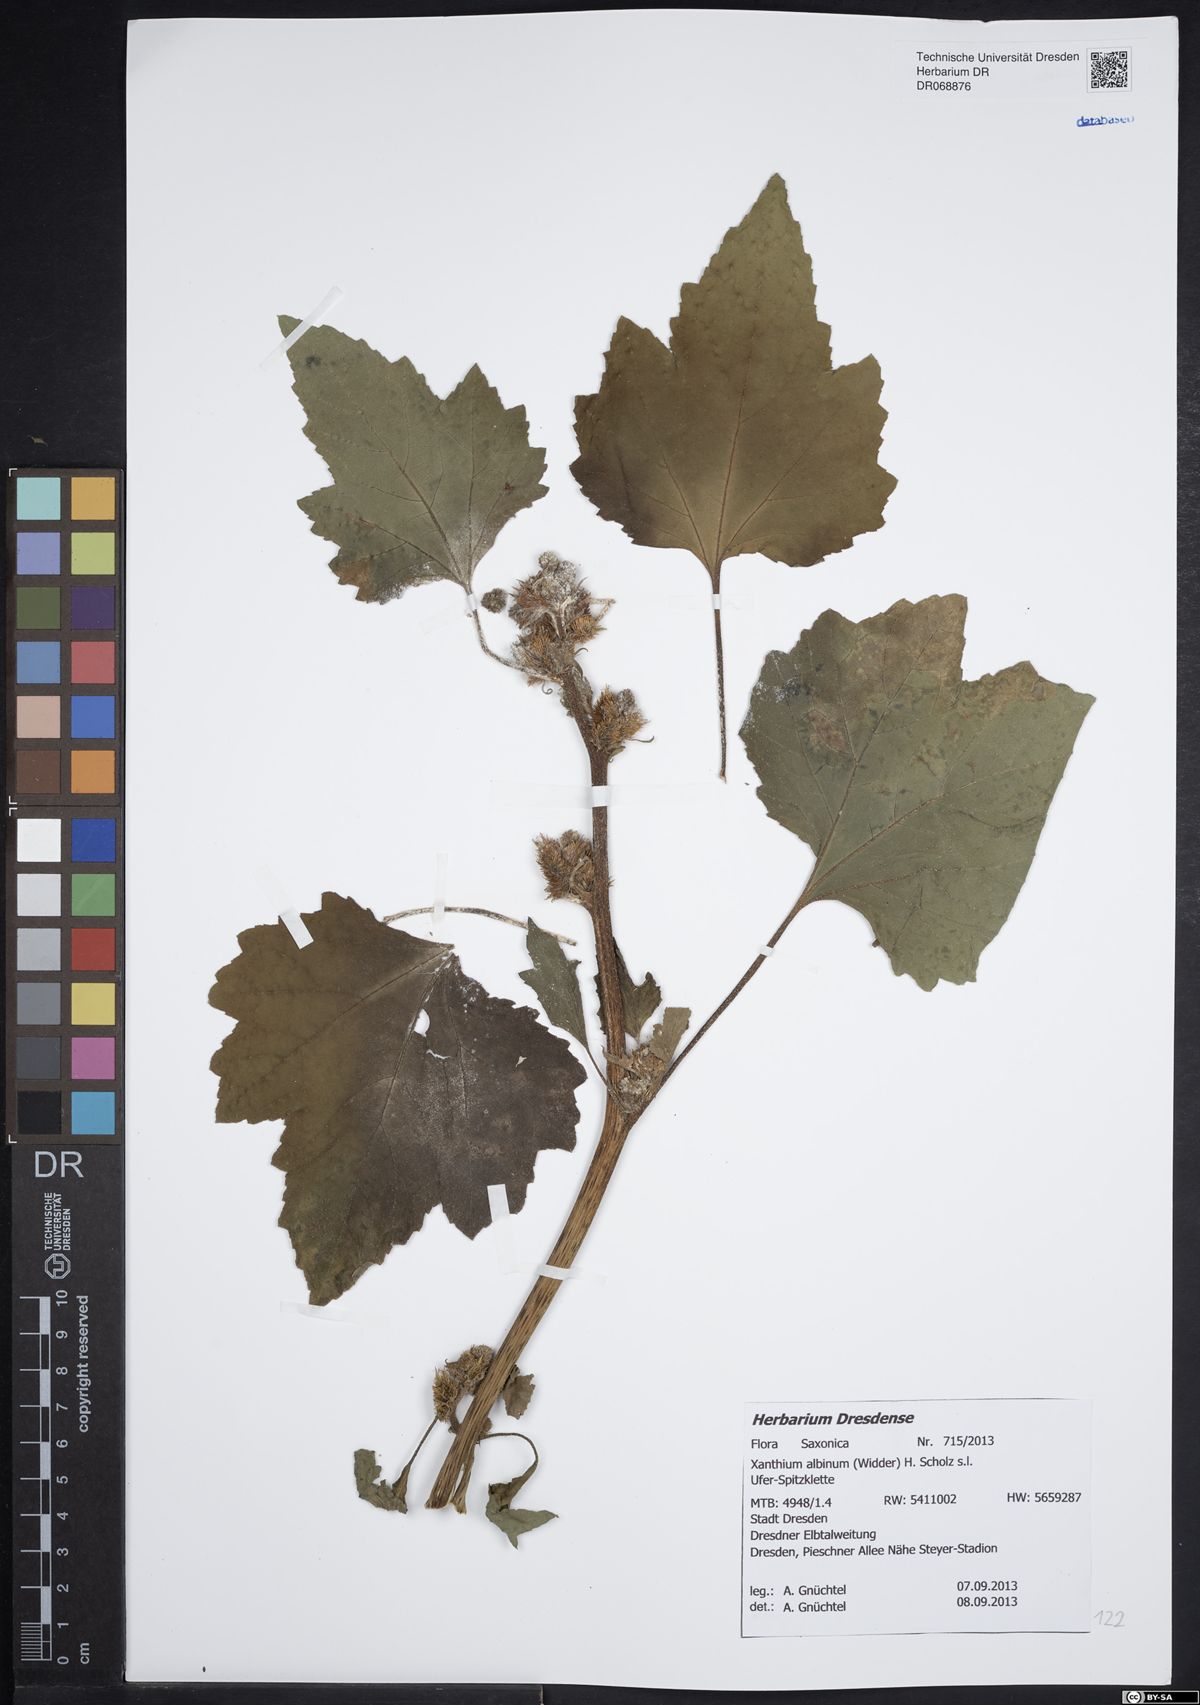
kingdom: Plantae
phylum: Tracheophyta
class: Magnoliopsida
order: Asterales
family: Asteraceae
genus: Xanthium
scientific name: Xanthium orientale
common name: Californian burr
